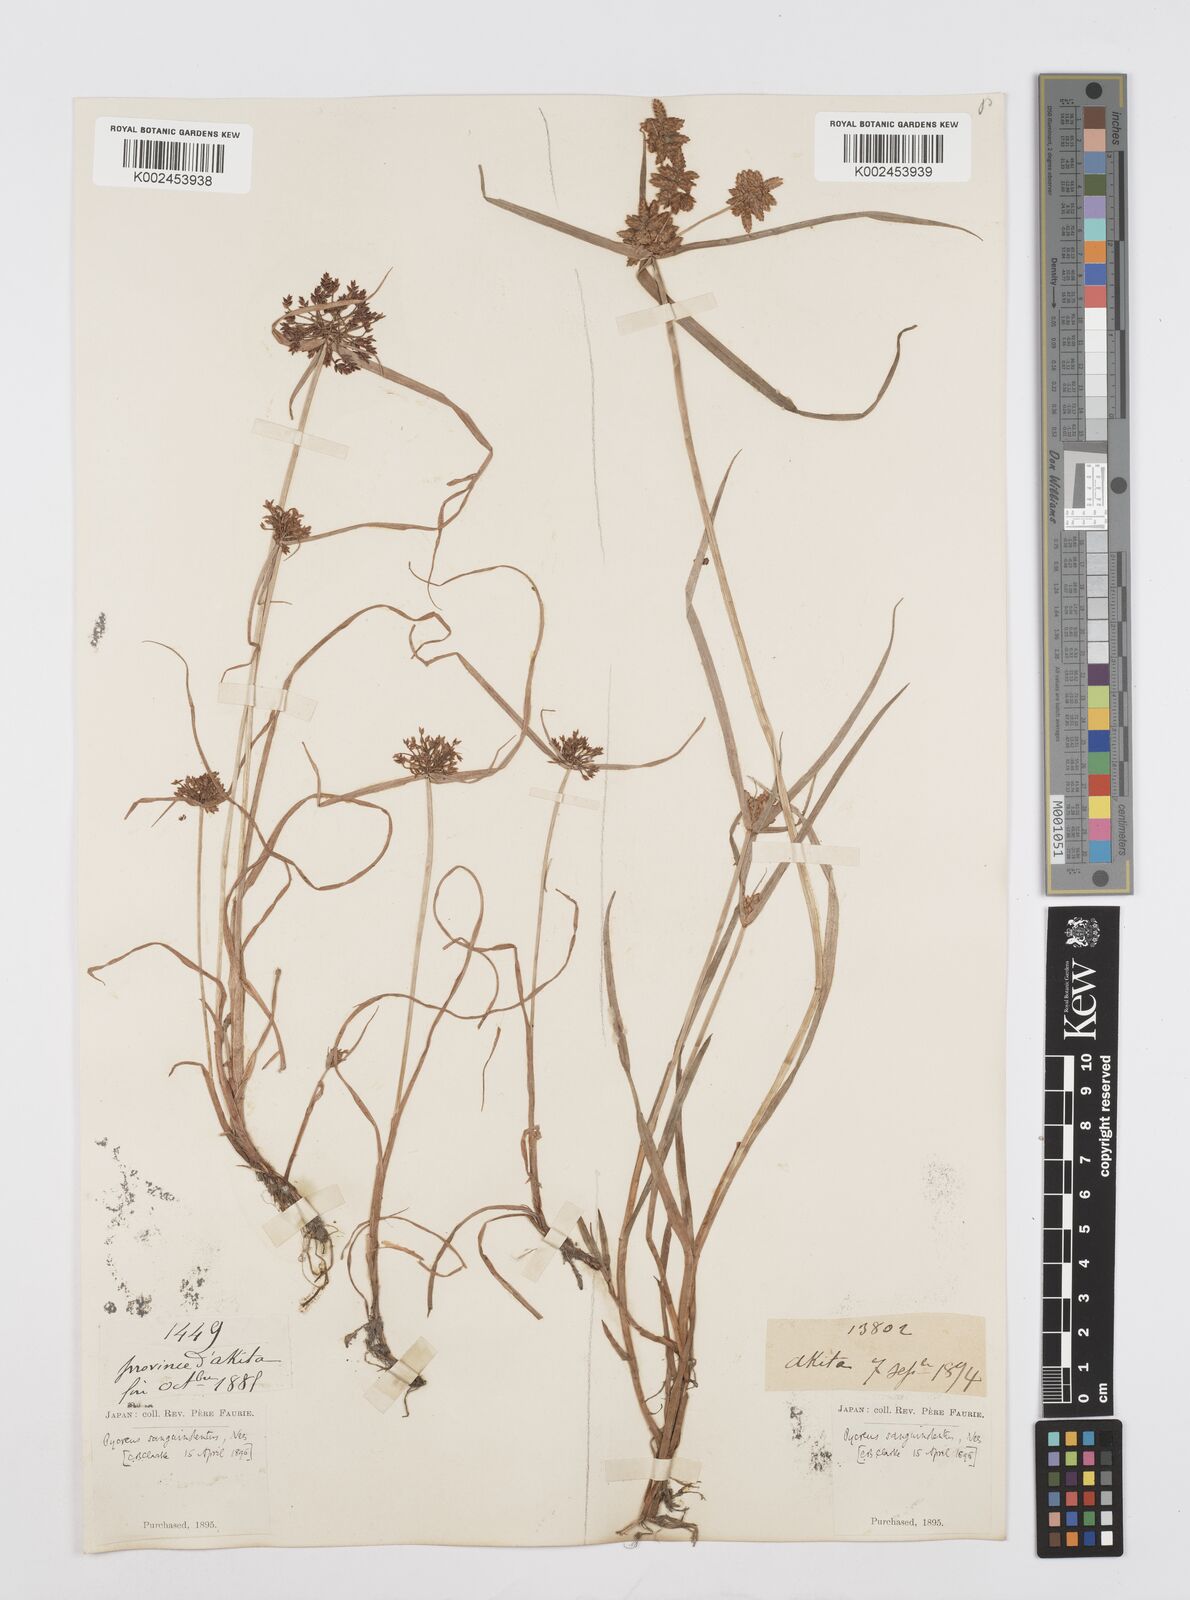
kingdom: Plantae
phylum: Tracheophyta
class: Liliopsida
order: Poales
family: Cyperaceae
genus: Cyperus
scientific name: Cyperus sanguinolentus
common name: Purpleglume flatsedge
